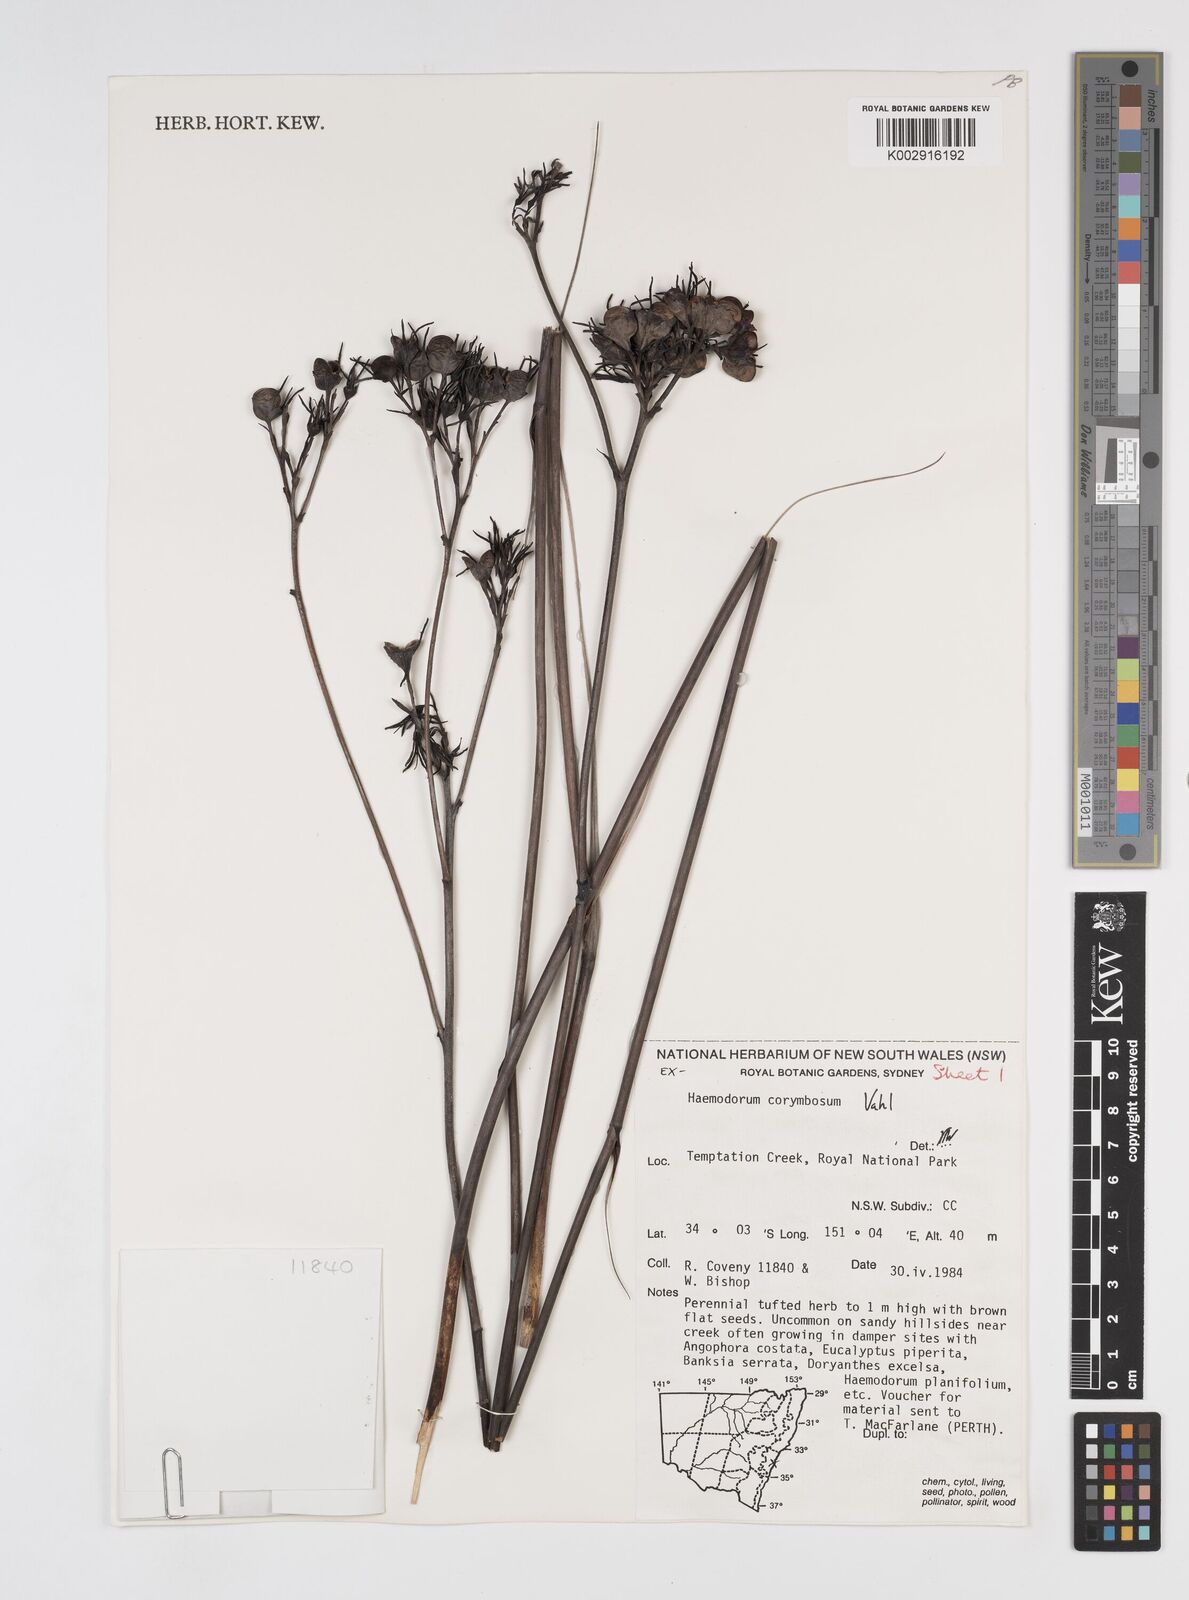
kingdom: Plantae
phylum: Tracheophyta
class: Liliopsida
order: Commelinales
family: Haemodoraceae
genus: Haemodorum
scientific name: Haemodorum corymbosum
